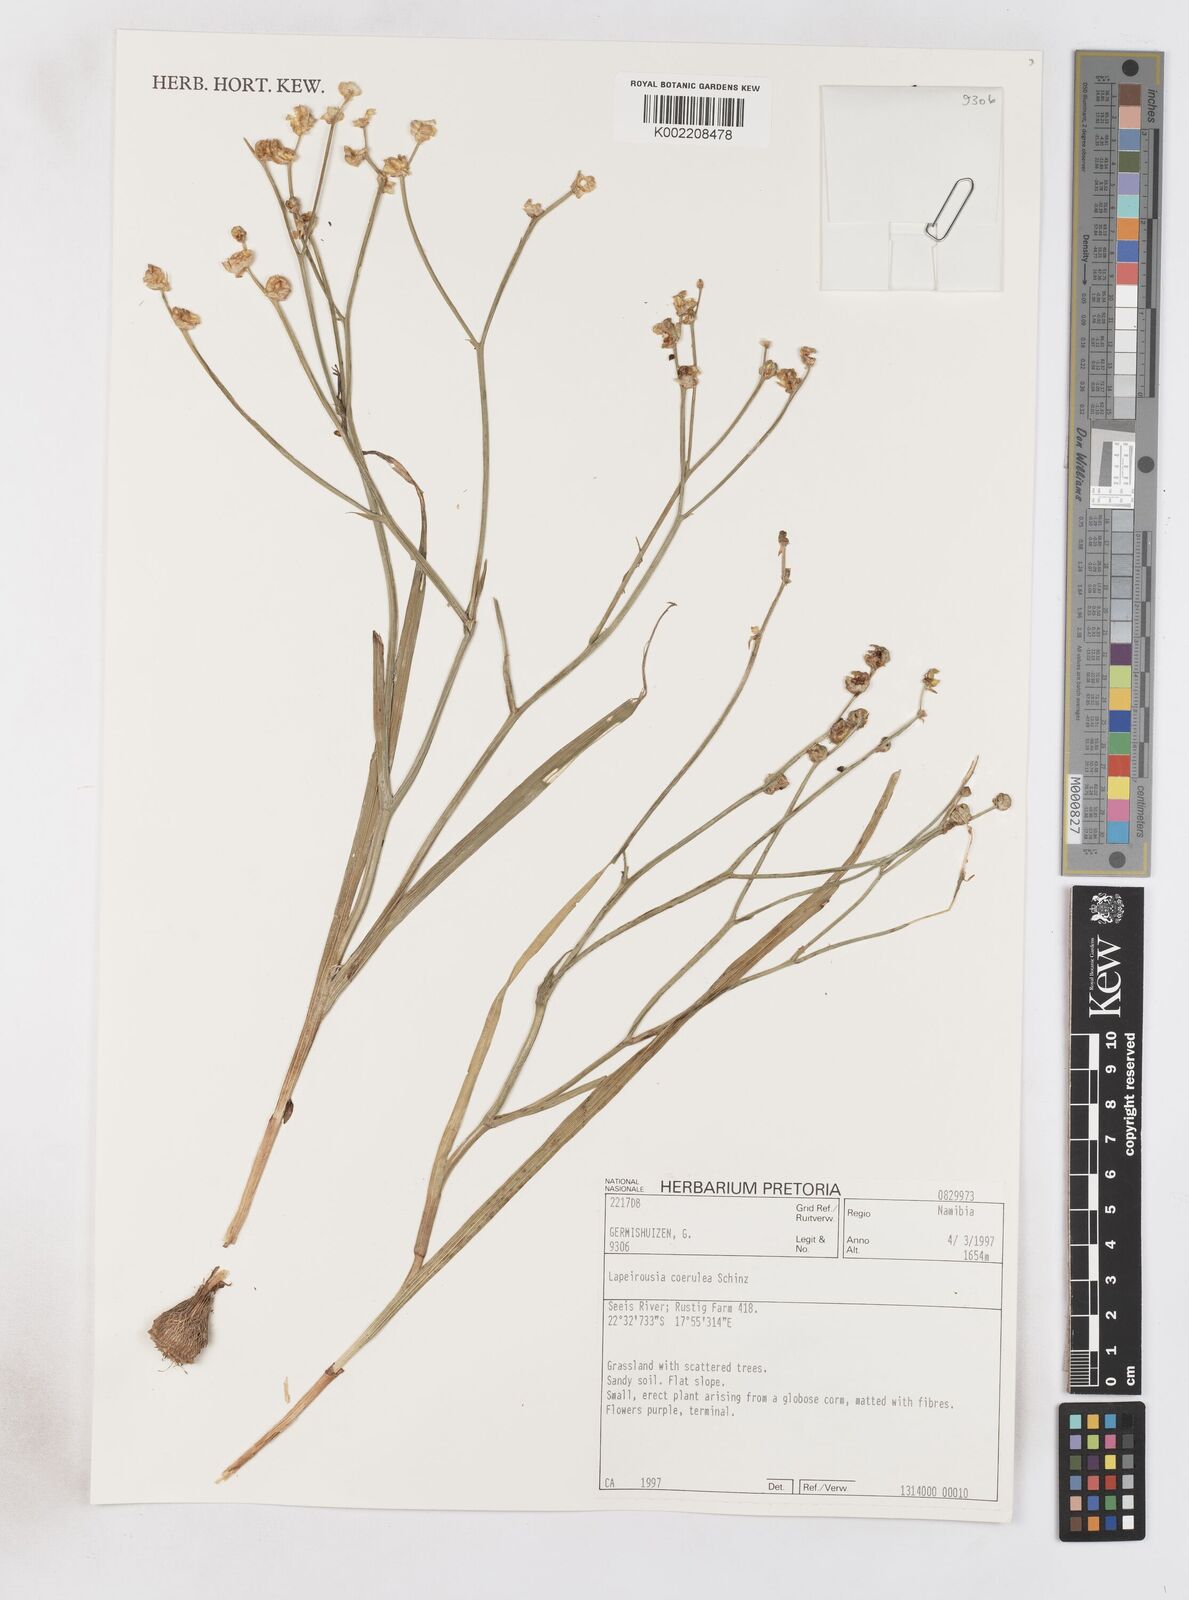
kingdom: Plantae
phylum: Tracheophyta
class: Liliopsida
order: Asparagales
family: Iridaceae
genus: Afrosolen
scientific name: Afrosolen coeruleus
